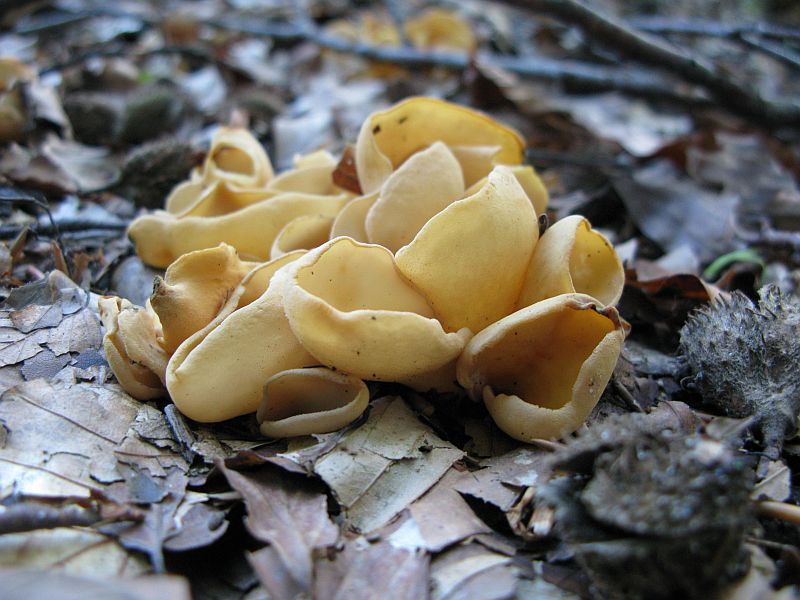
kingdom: Fungi
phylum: Ascomycota
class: Pezizomycetes
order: Pezizales
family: Otideaceae
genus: Otidea
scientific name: Otidea onotica
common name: æsel-ørebæger
